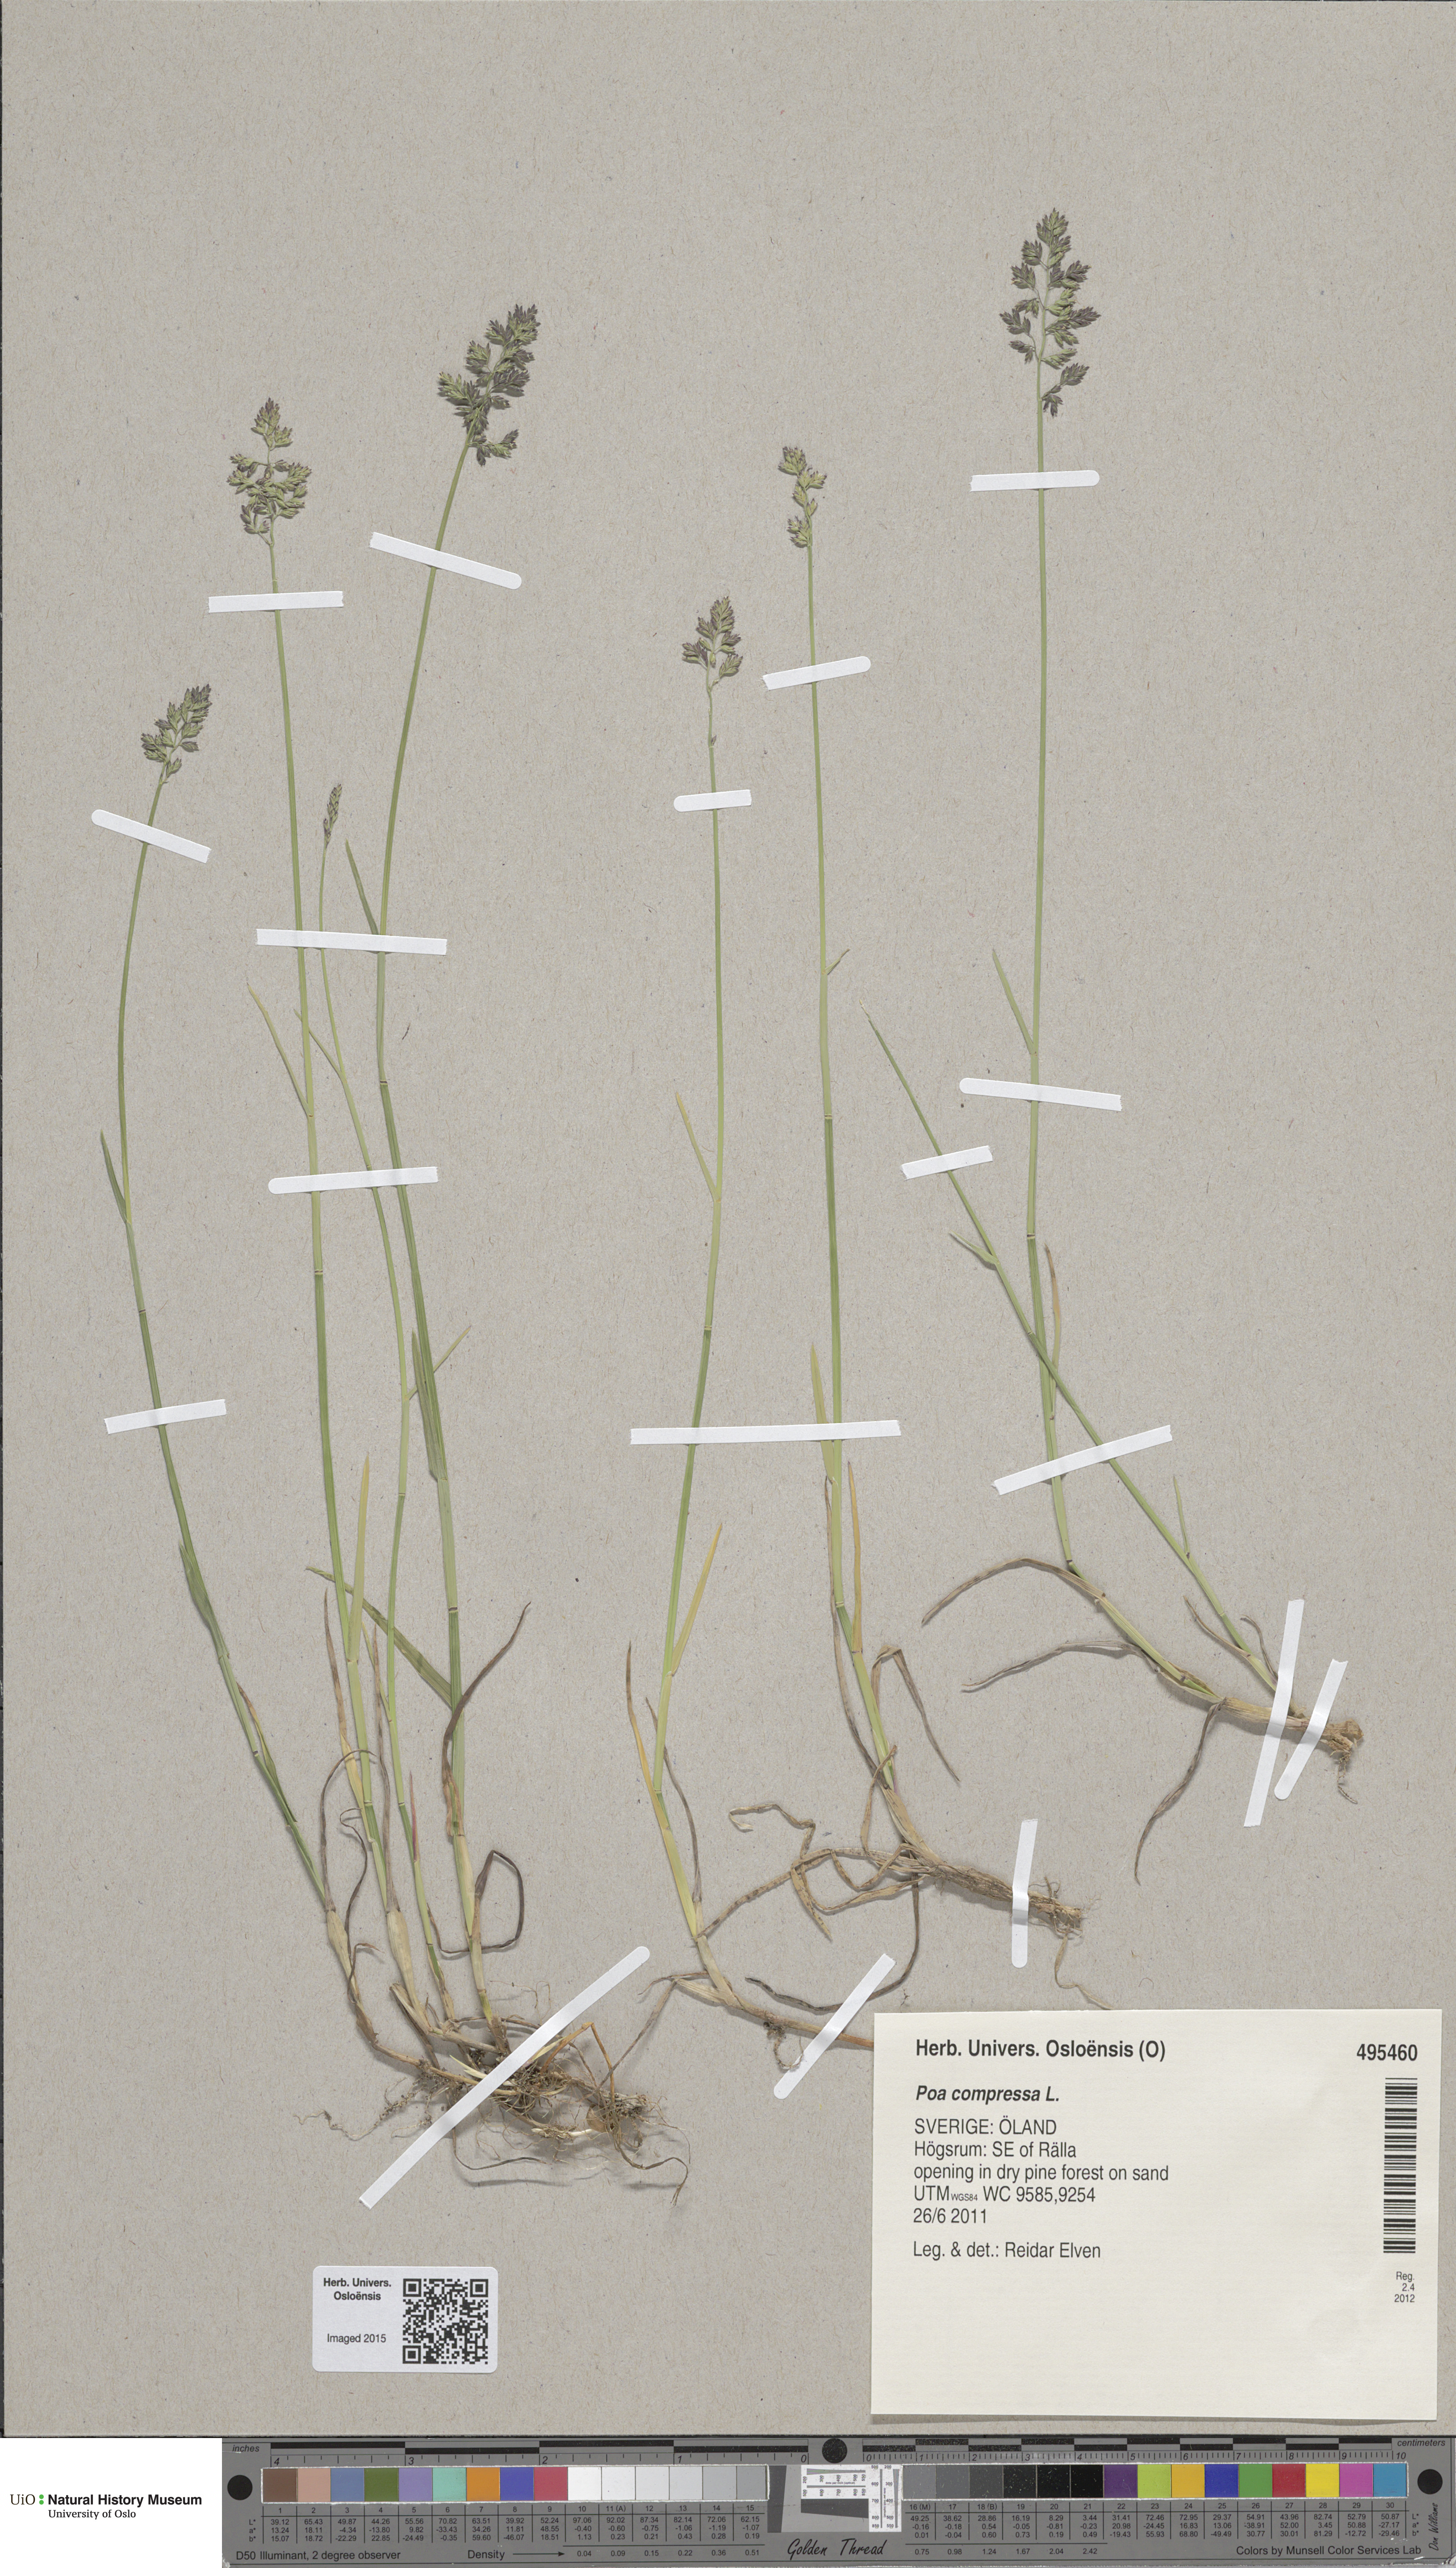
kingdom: Plantae
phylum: Tracheophyta
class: Liliopsida
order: Poales
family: Poaceae
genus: Poa
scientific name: Poa compressa
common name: Canada bluegrass
